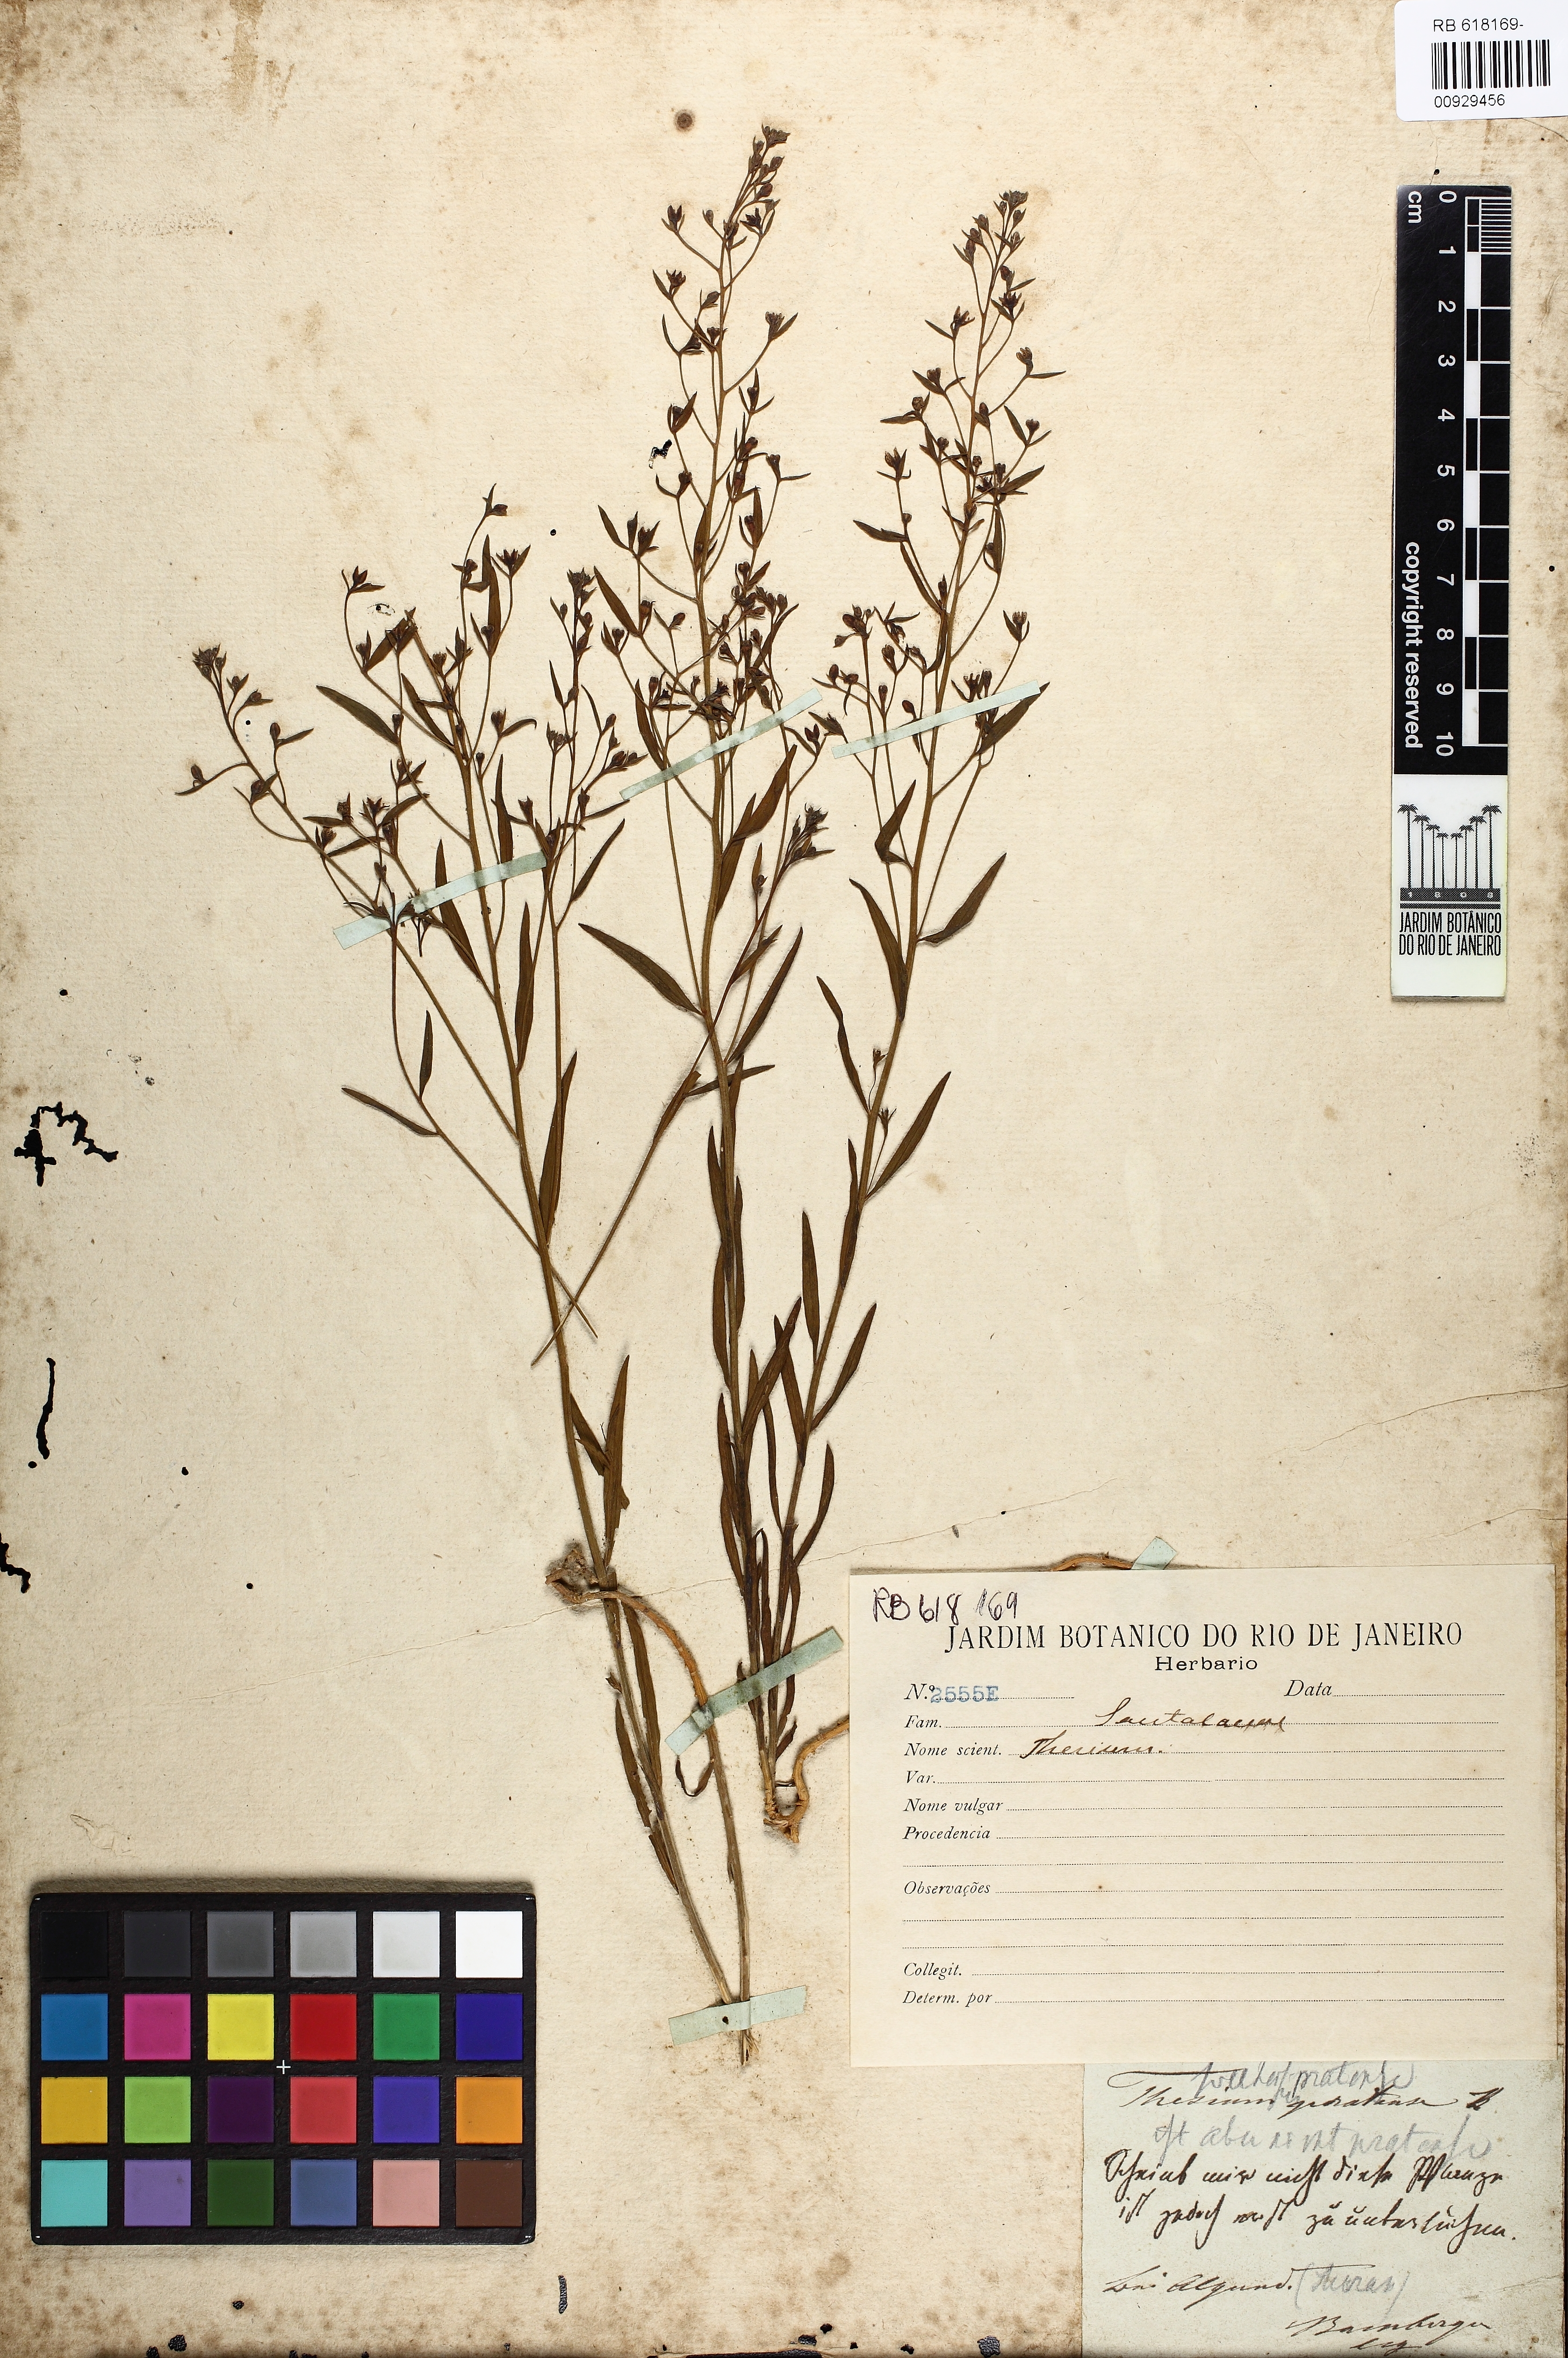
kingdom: Plantae
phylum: Tracheophyta
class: Magnoliopsida
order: Santalales
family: Thesiaceae
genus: Thesium
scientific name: Thesium pyrenaicum
